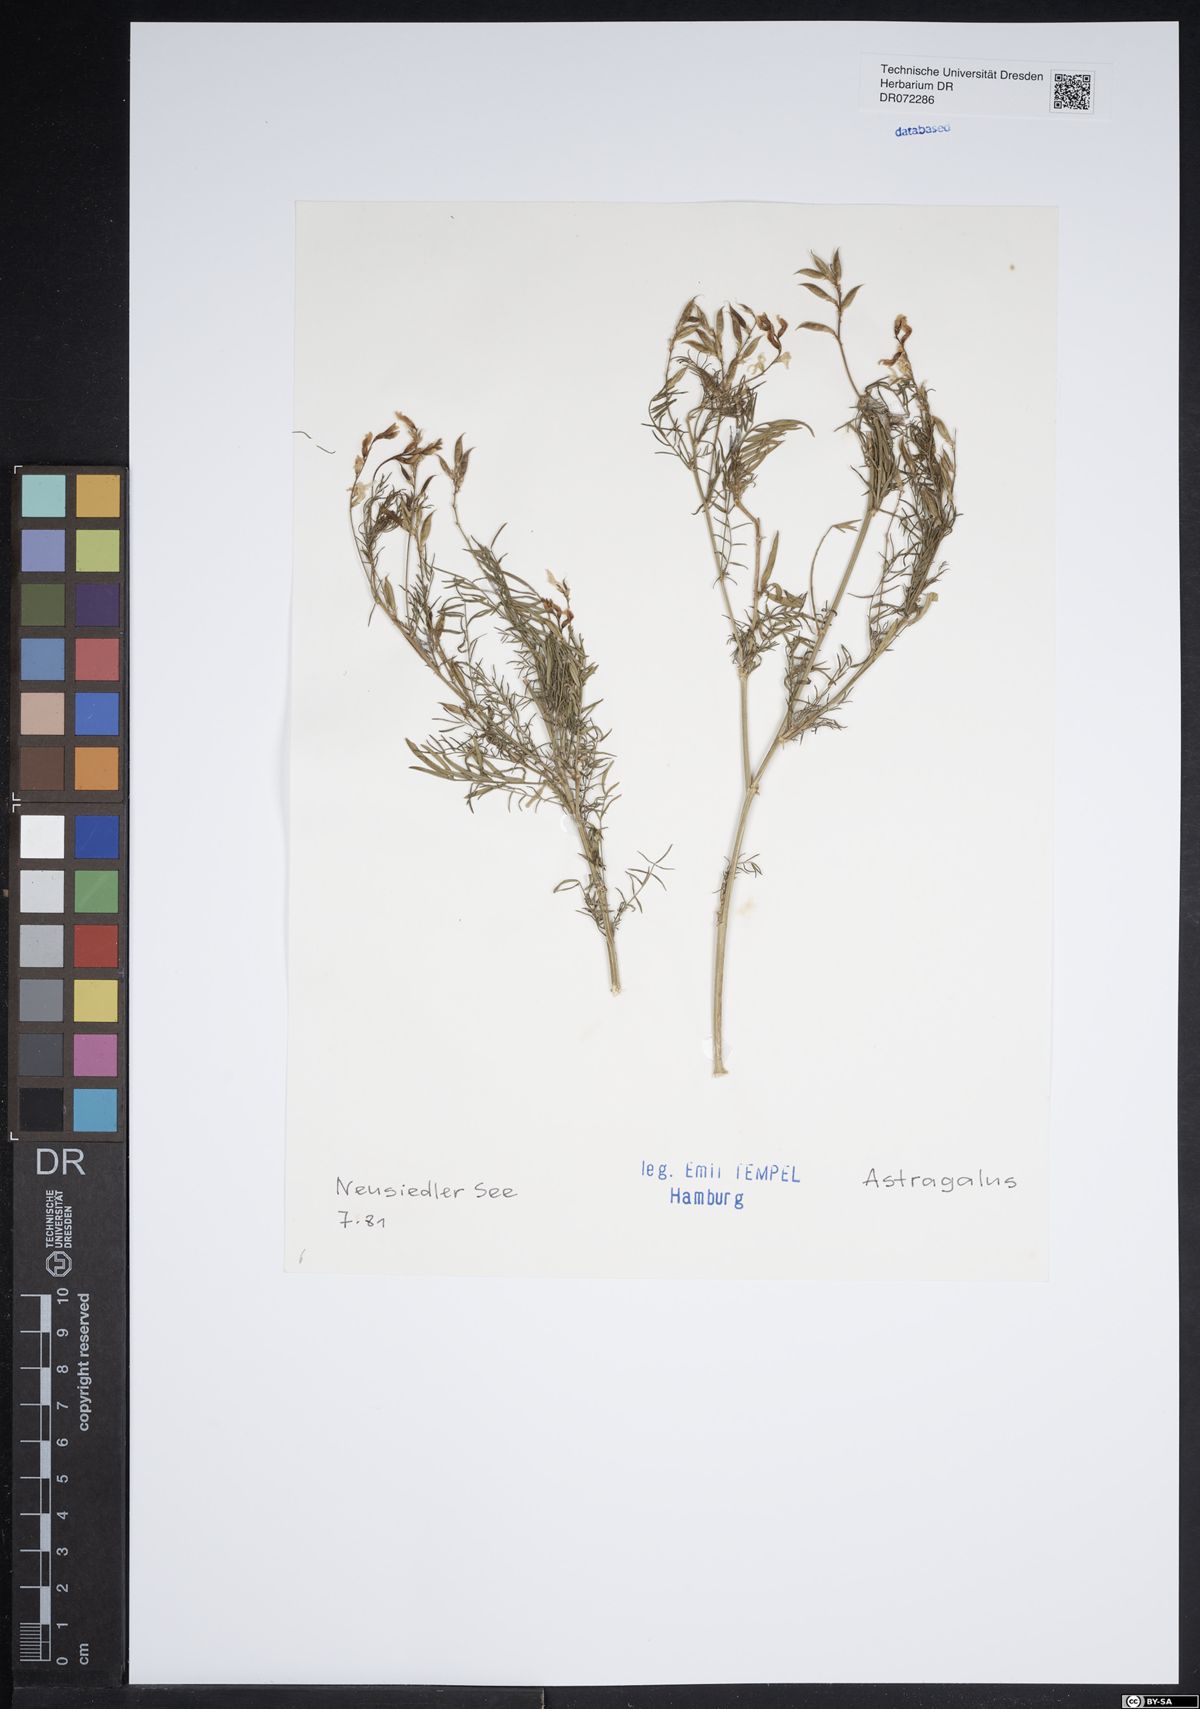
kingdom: Plantae
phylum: Tracheophyta
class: Magnoliopsida
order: Fabales
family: Fabaceae
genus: Astragalus
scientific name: Astragalus
